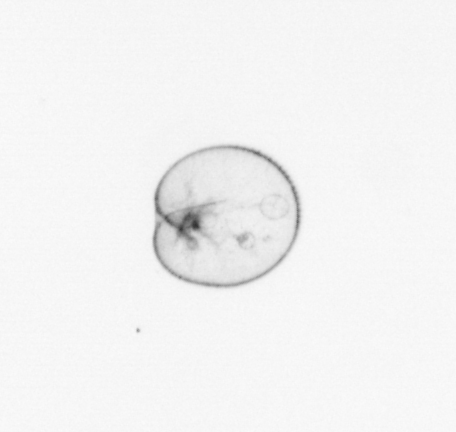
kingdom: Chromista
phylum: Myzozoa
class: Dinophyceae
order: Noctilucales
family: Noctilucaceae
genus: Noctiluca
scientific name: Noctiluca scintillans
